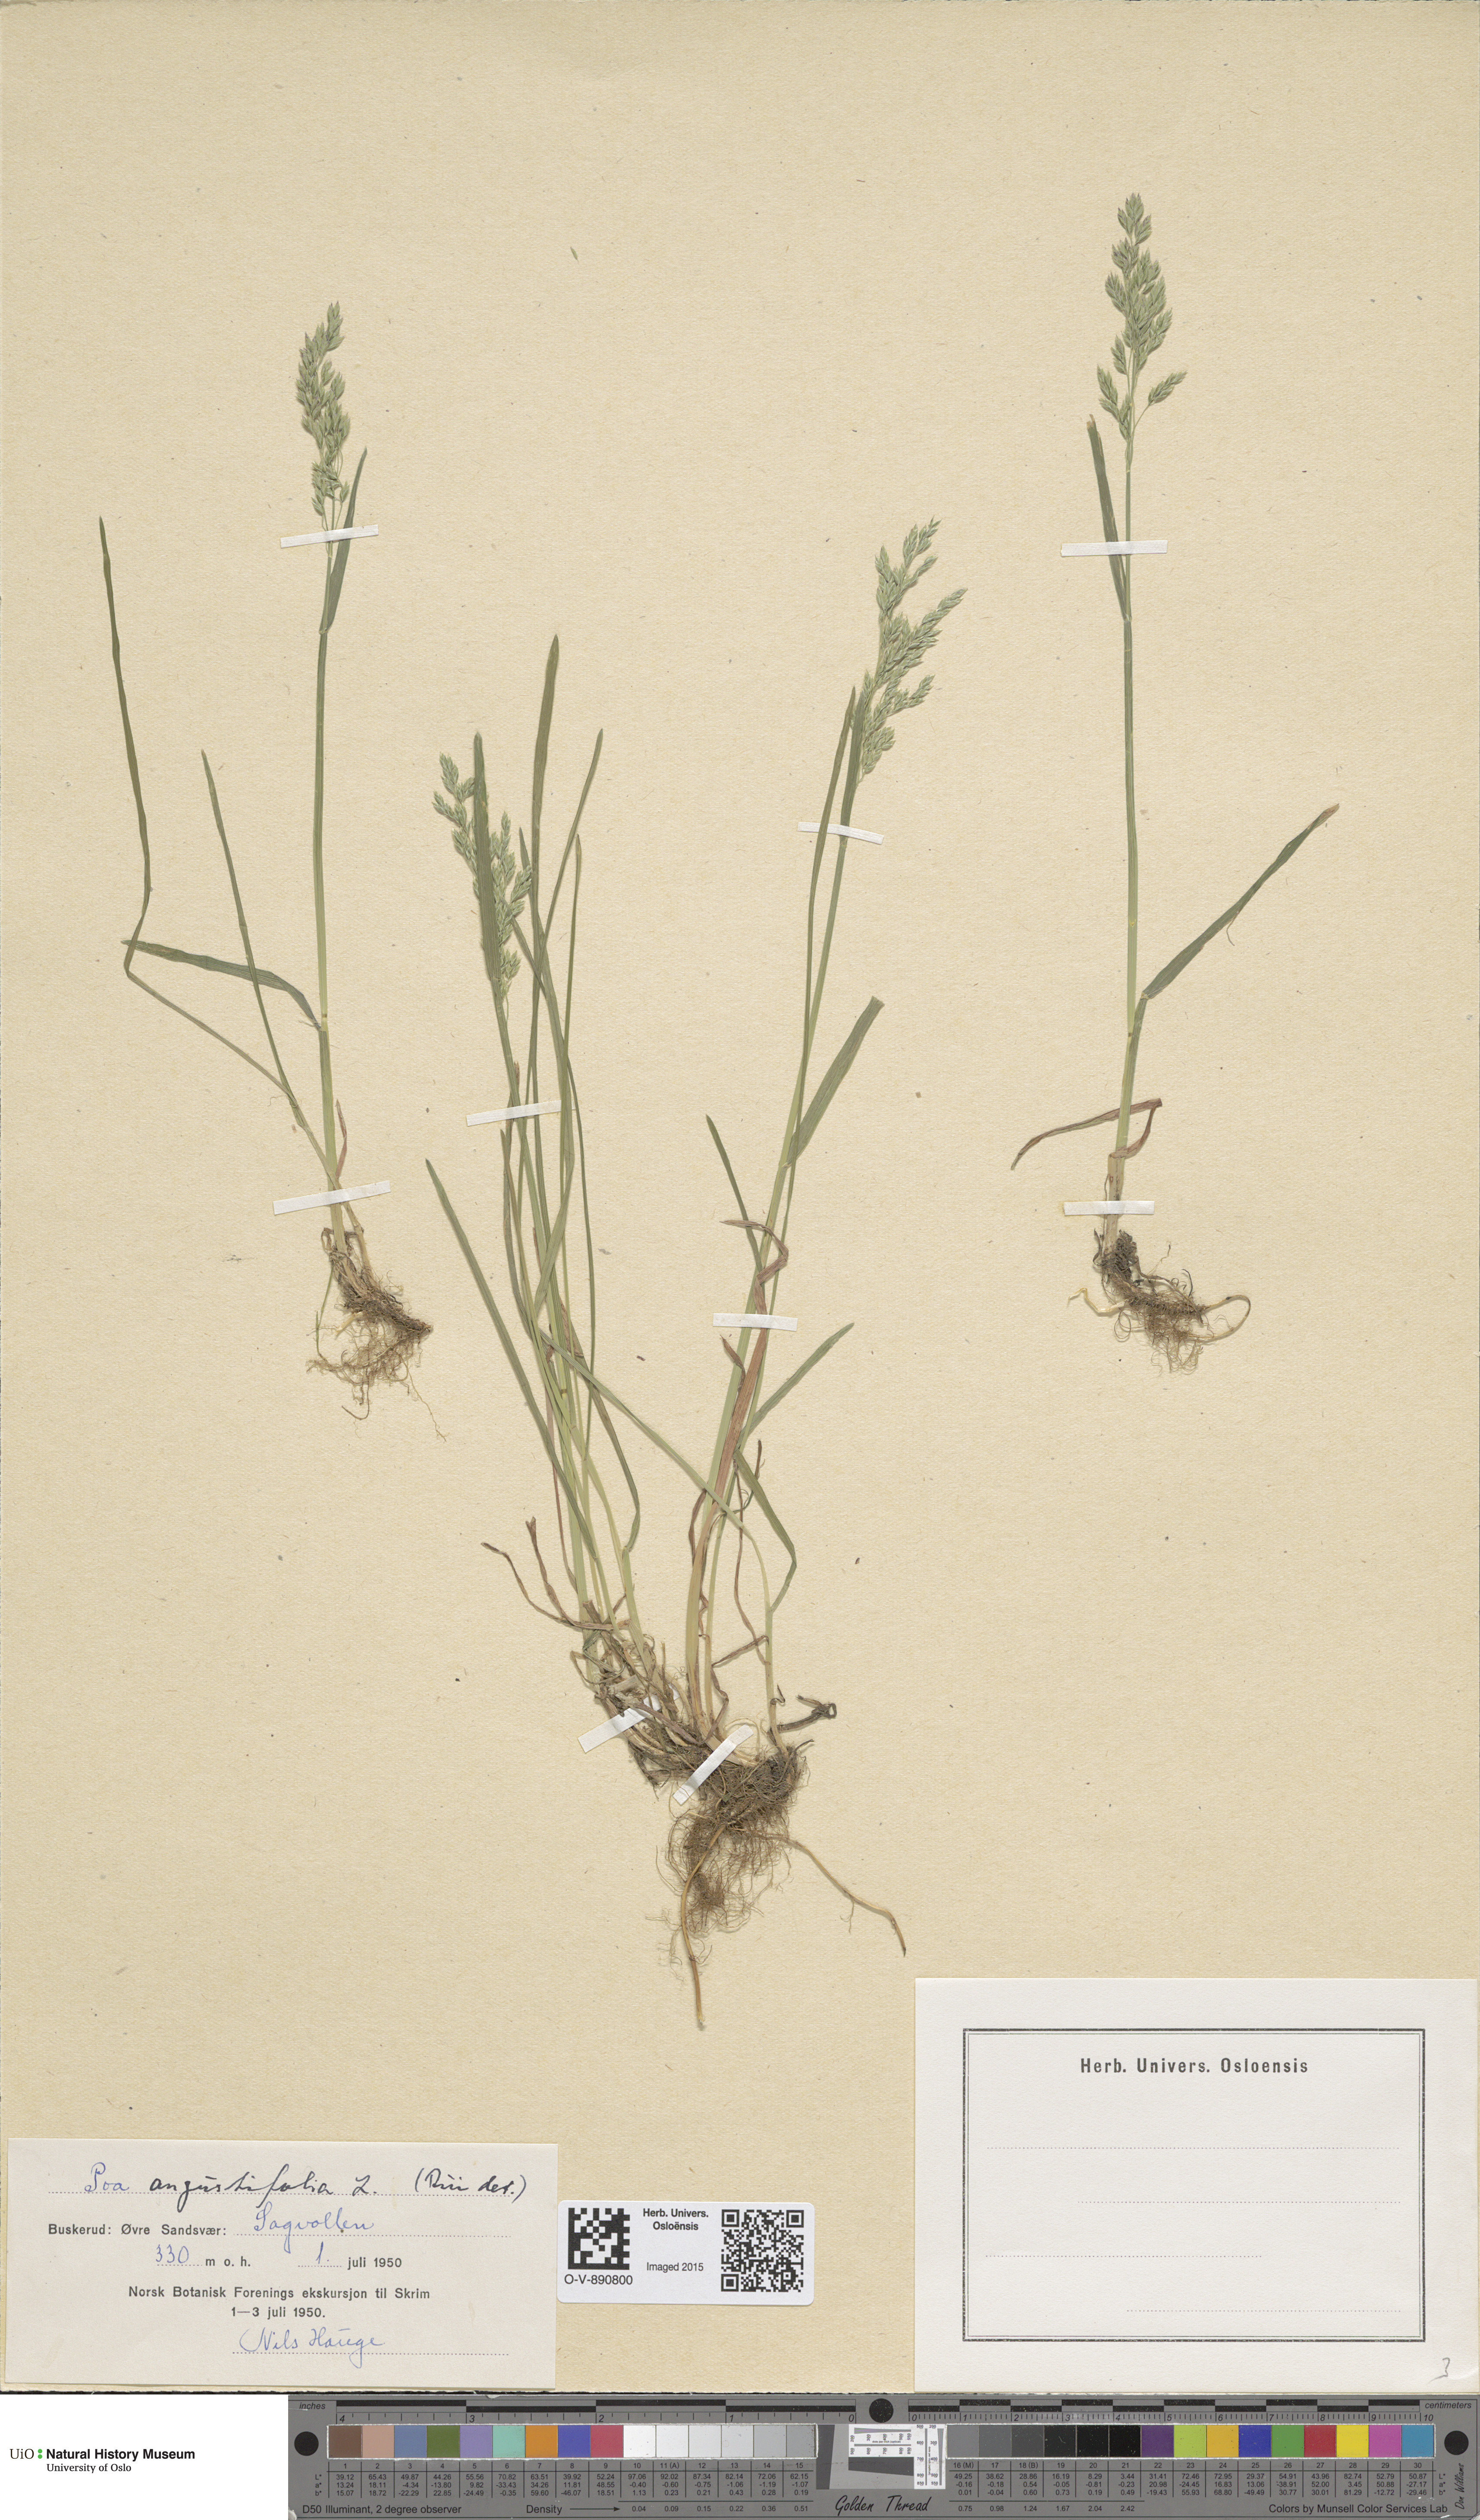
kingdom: Plantae
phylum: Tracheophyta
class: Liliopsida
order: Poales
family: Poaceae
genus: Poa
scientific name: Poa angustifolia
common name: Narrow-leaved meadow-grass
